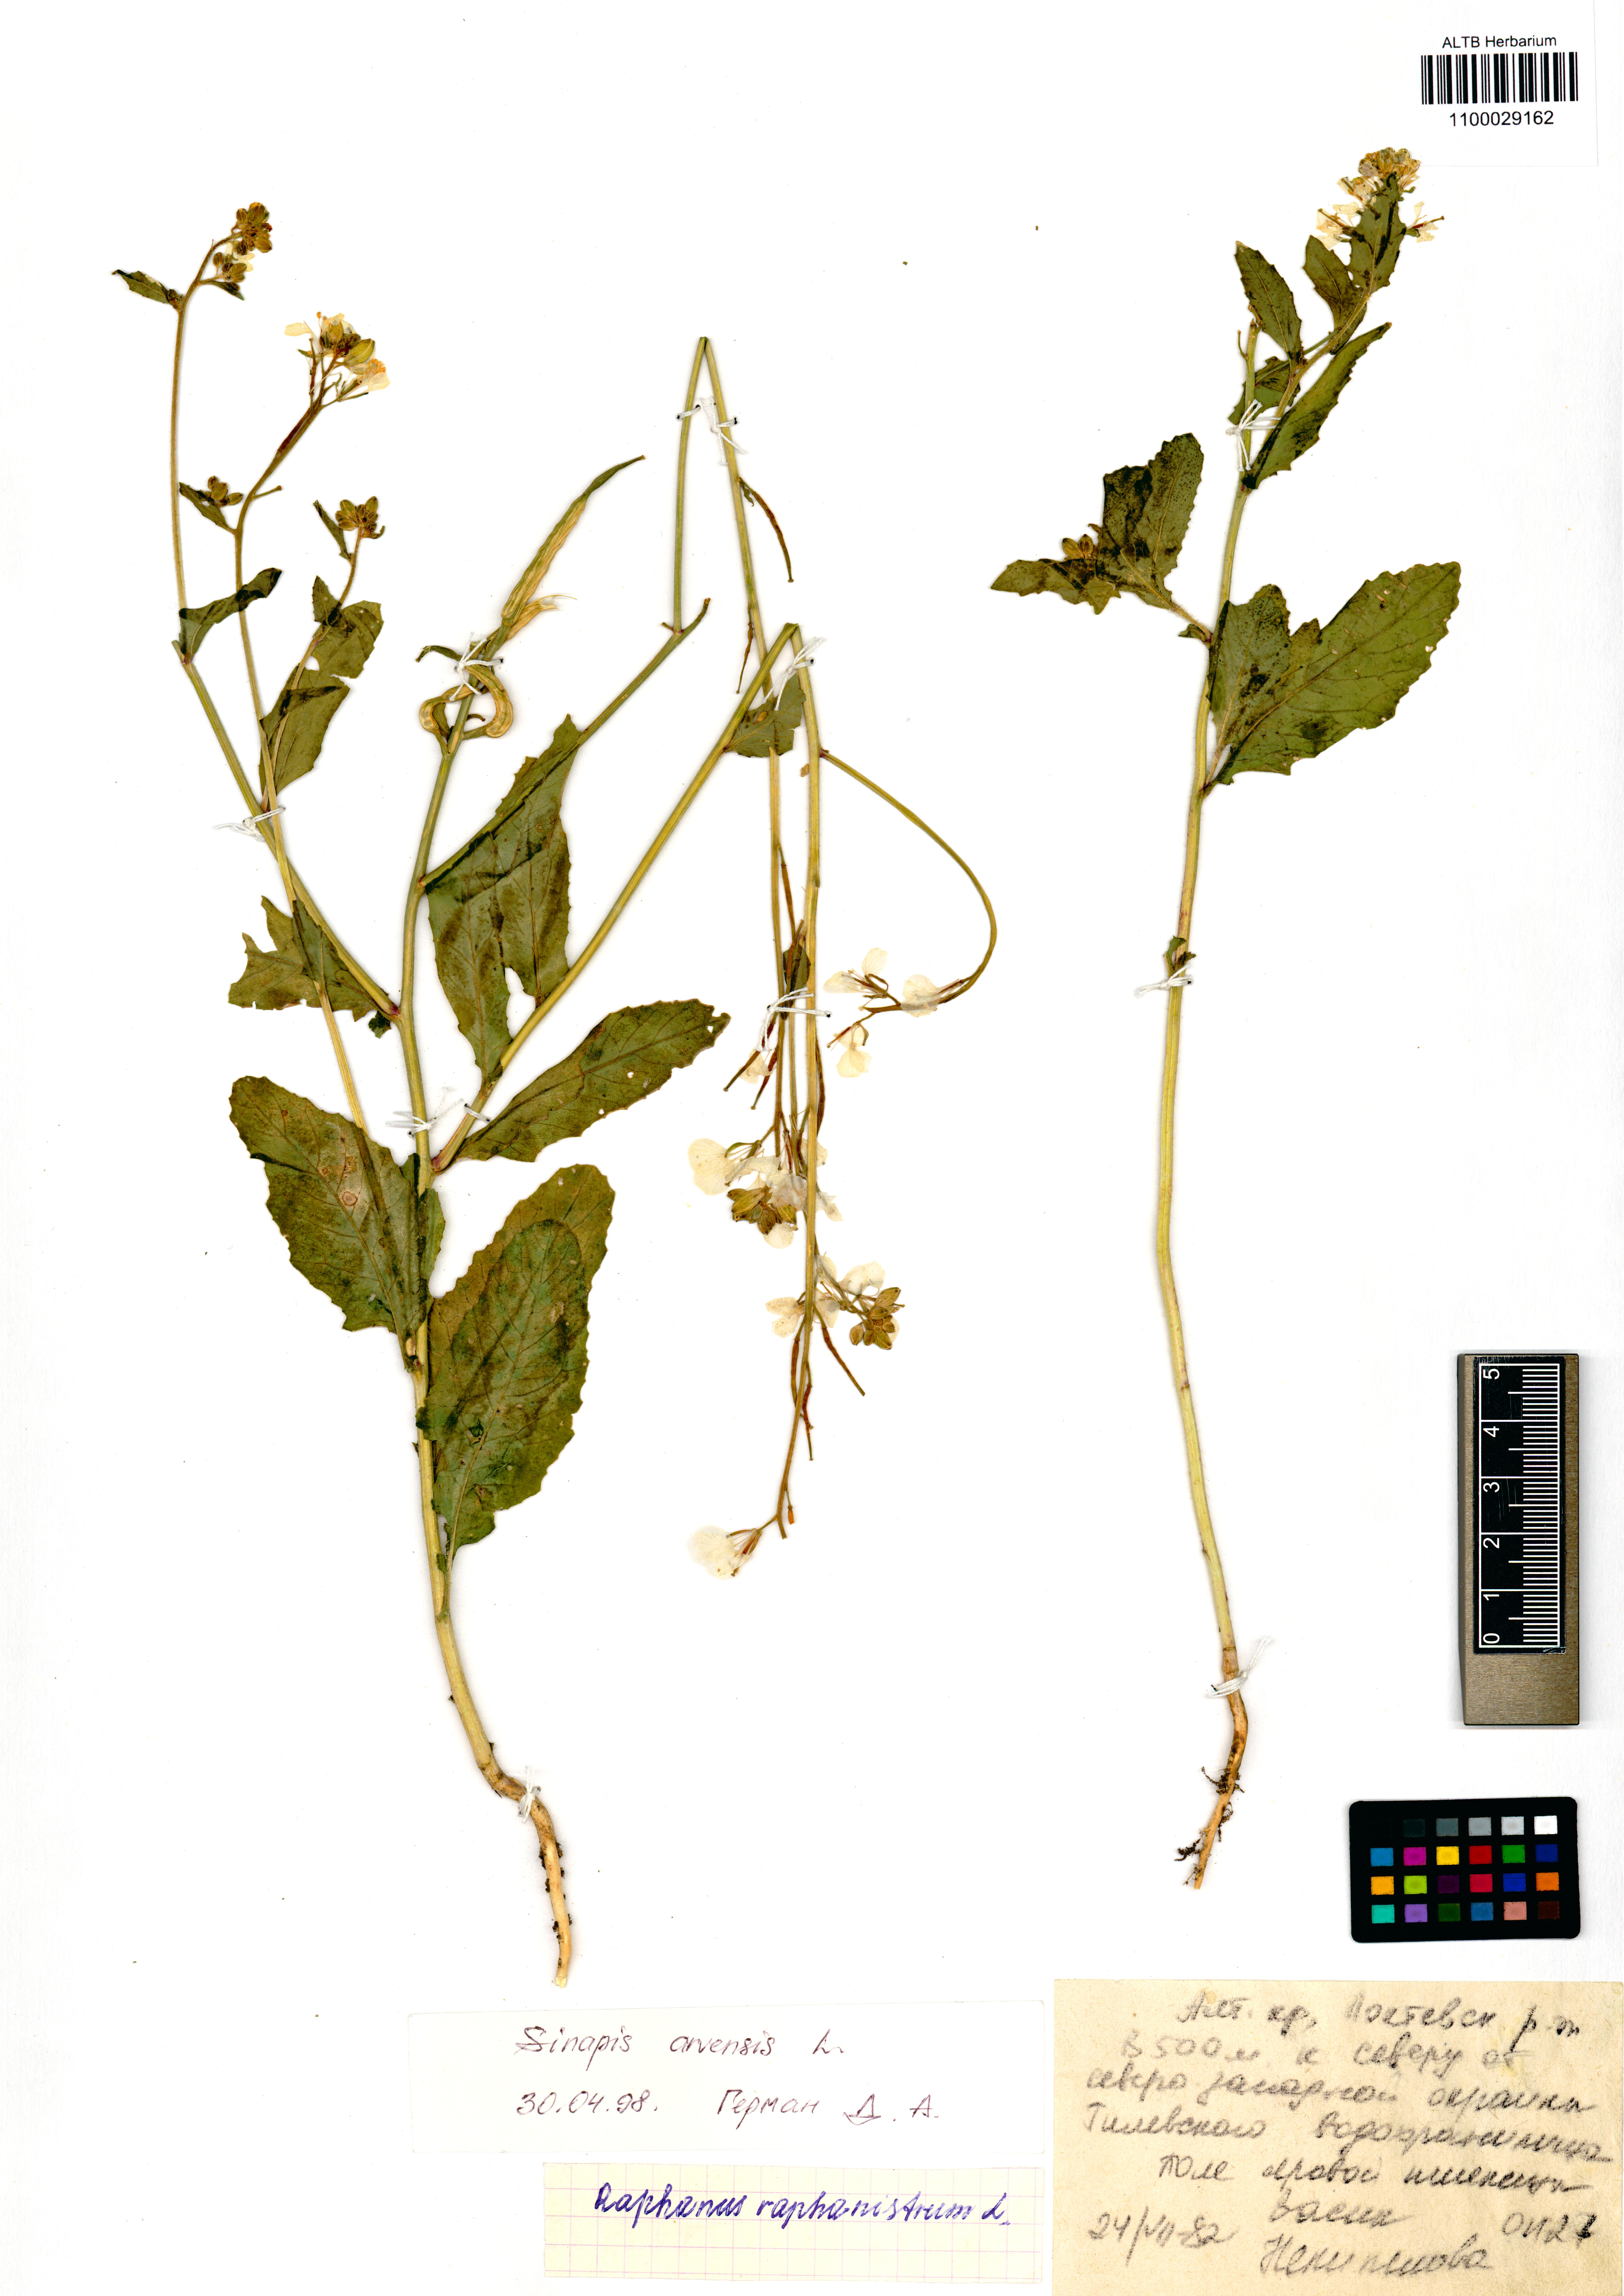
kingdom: Plantae
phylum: Tracheophyta
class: Magnoliopsida
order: Brassicales
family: Brassicaceae
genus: Sinapis
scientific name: Sinapis arvensis
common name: Charlock
